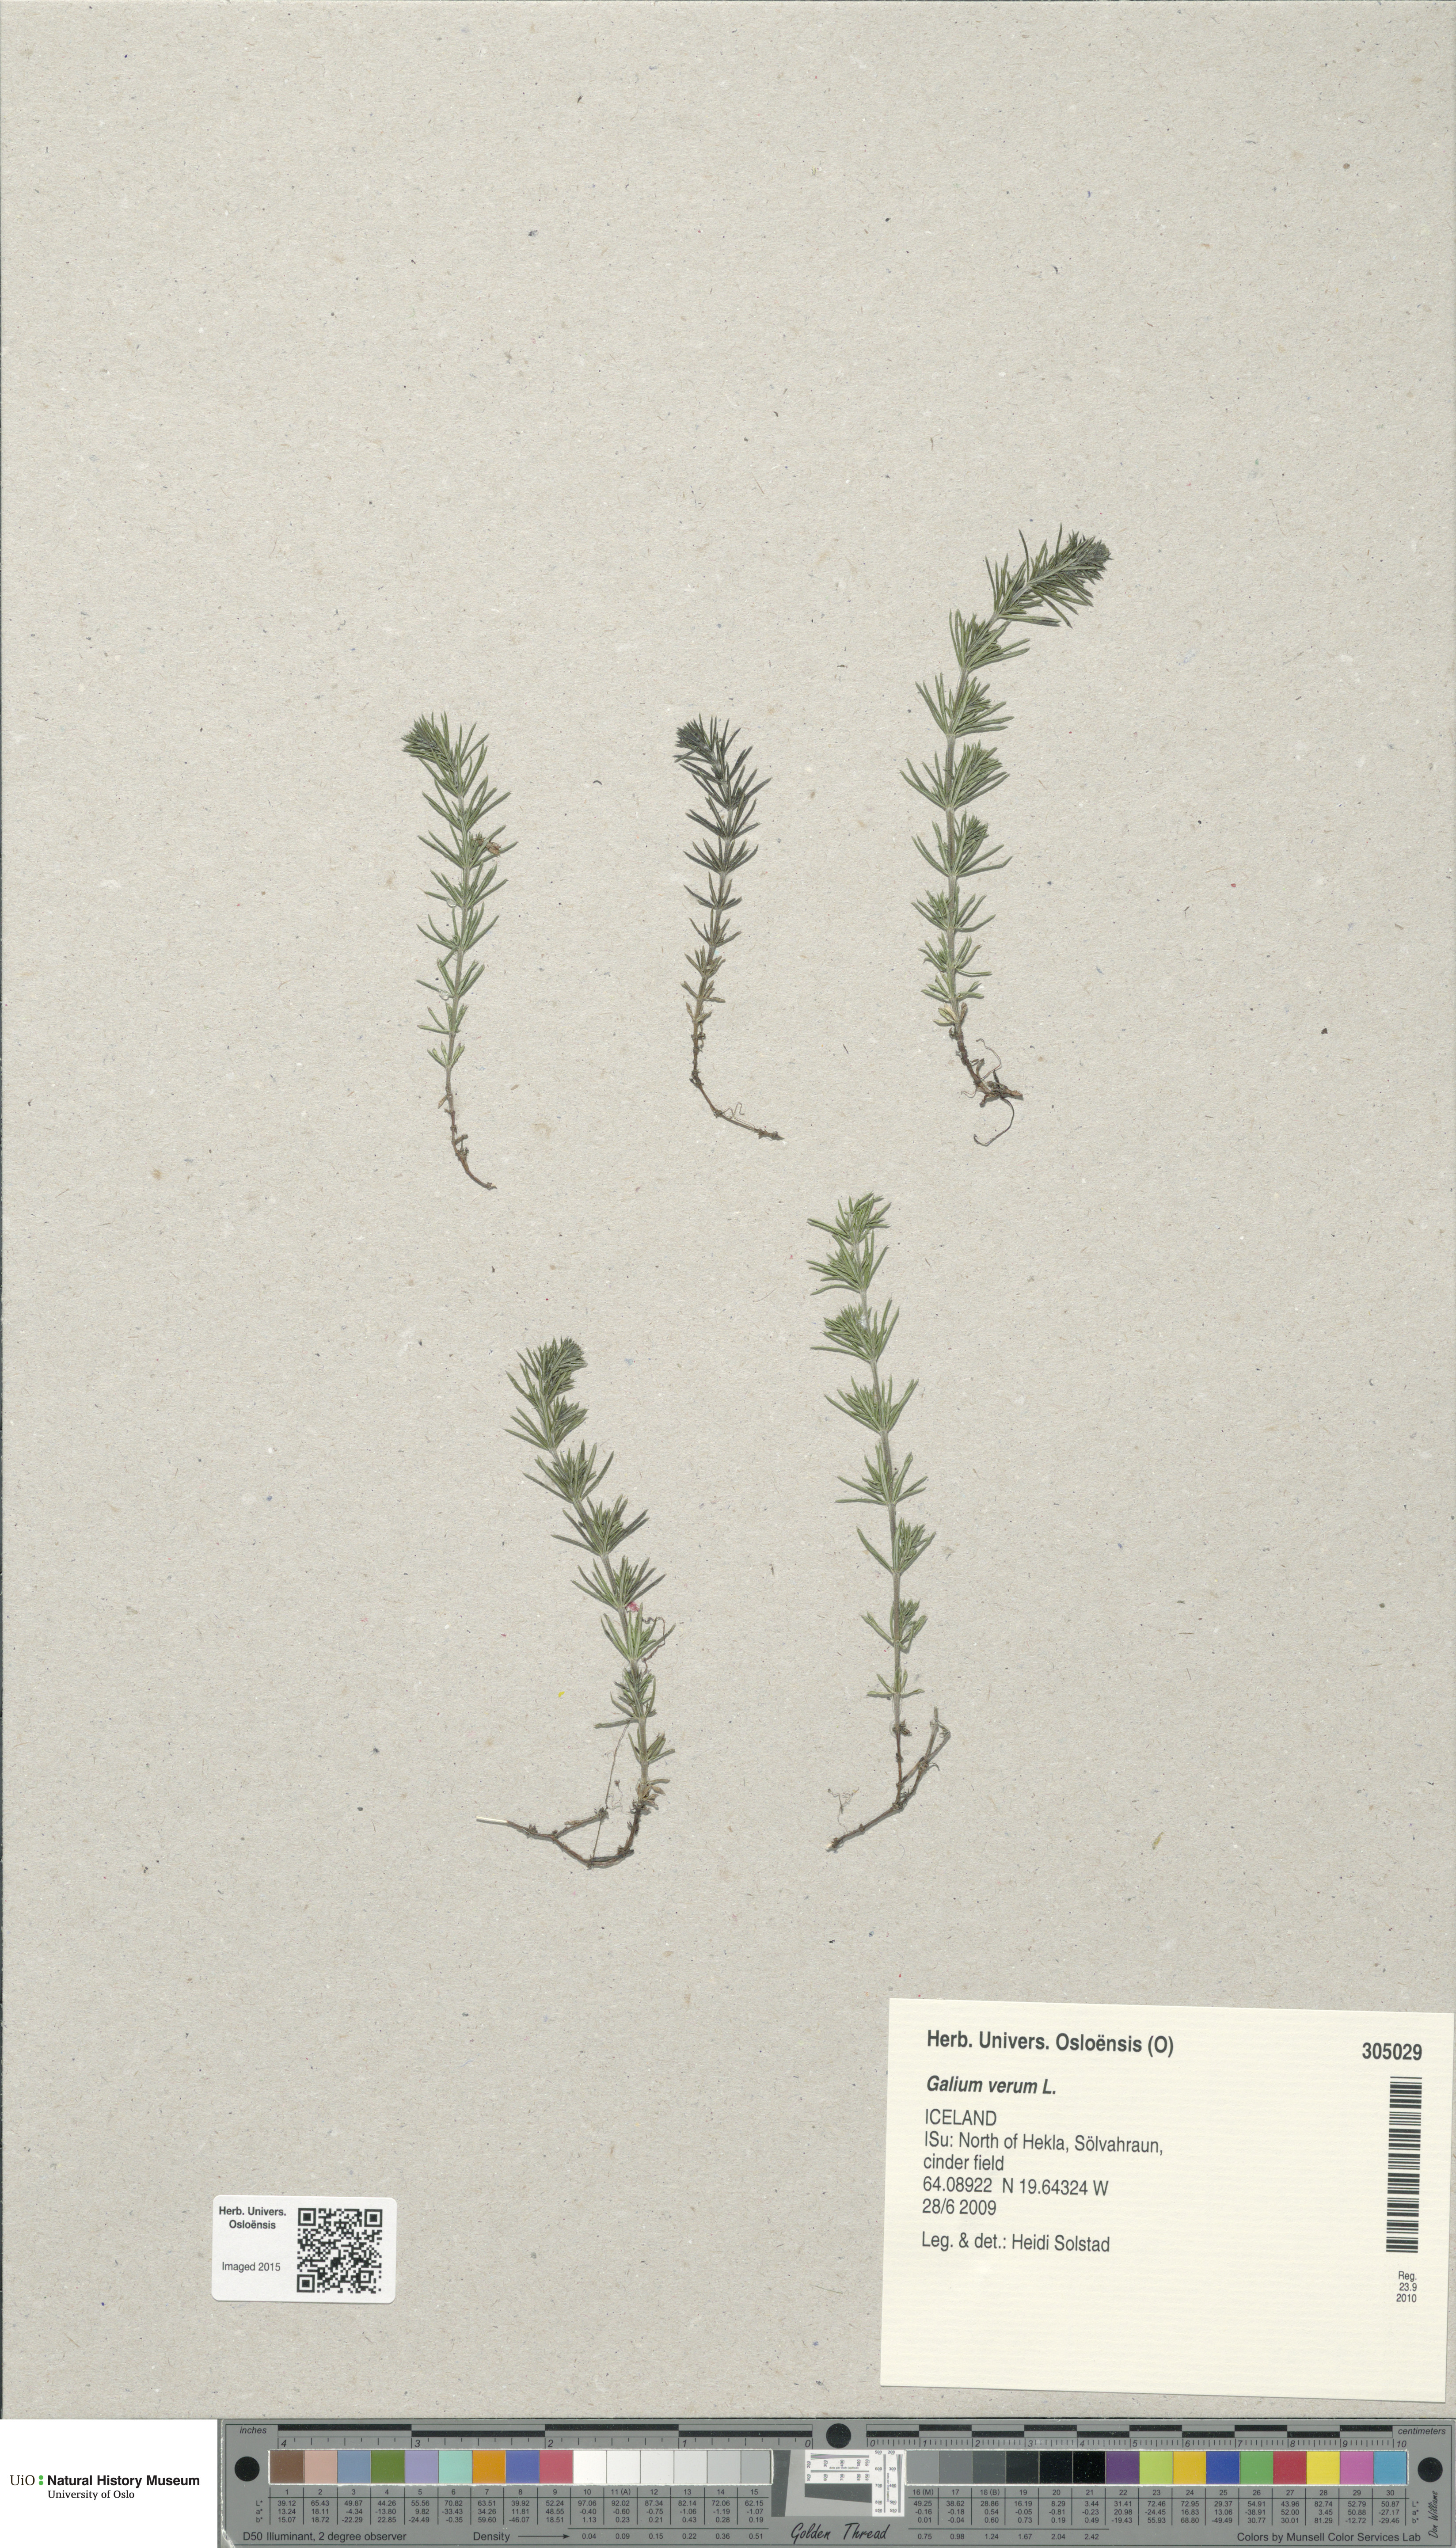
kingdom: Plantae
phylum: Tracheophyta
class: Magnoliopsida
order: Gentianales
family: Rubiaceae
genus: Galium
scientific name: Galium verum
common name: Lady's bedstraw
